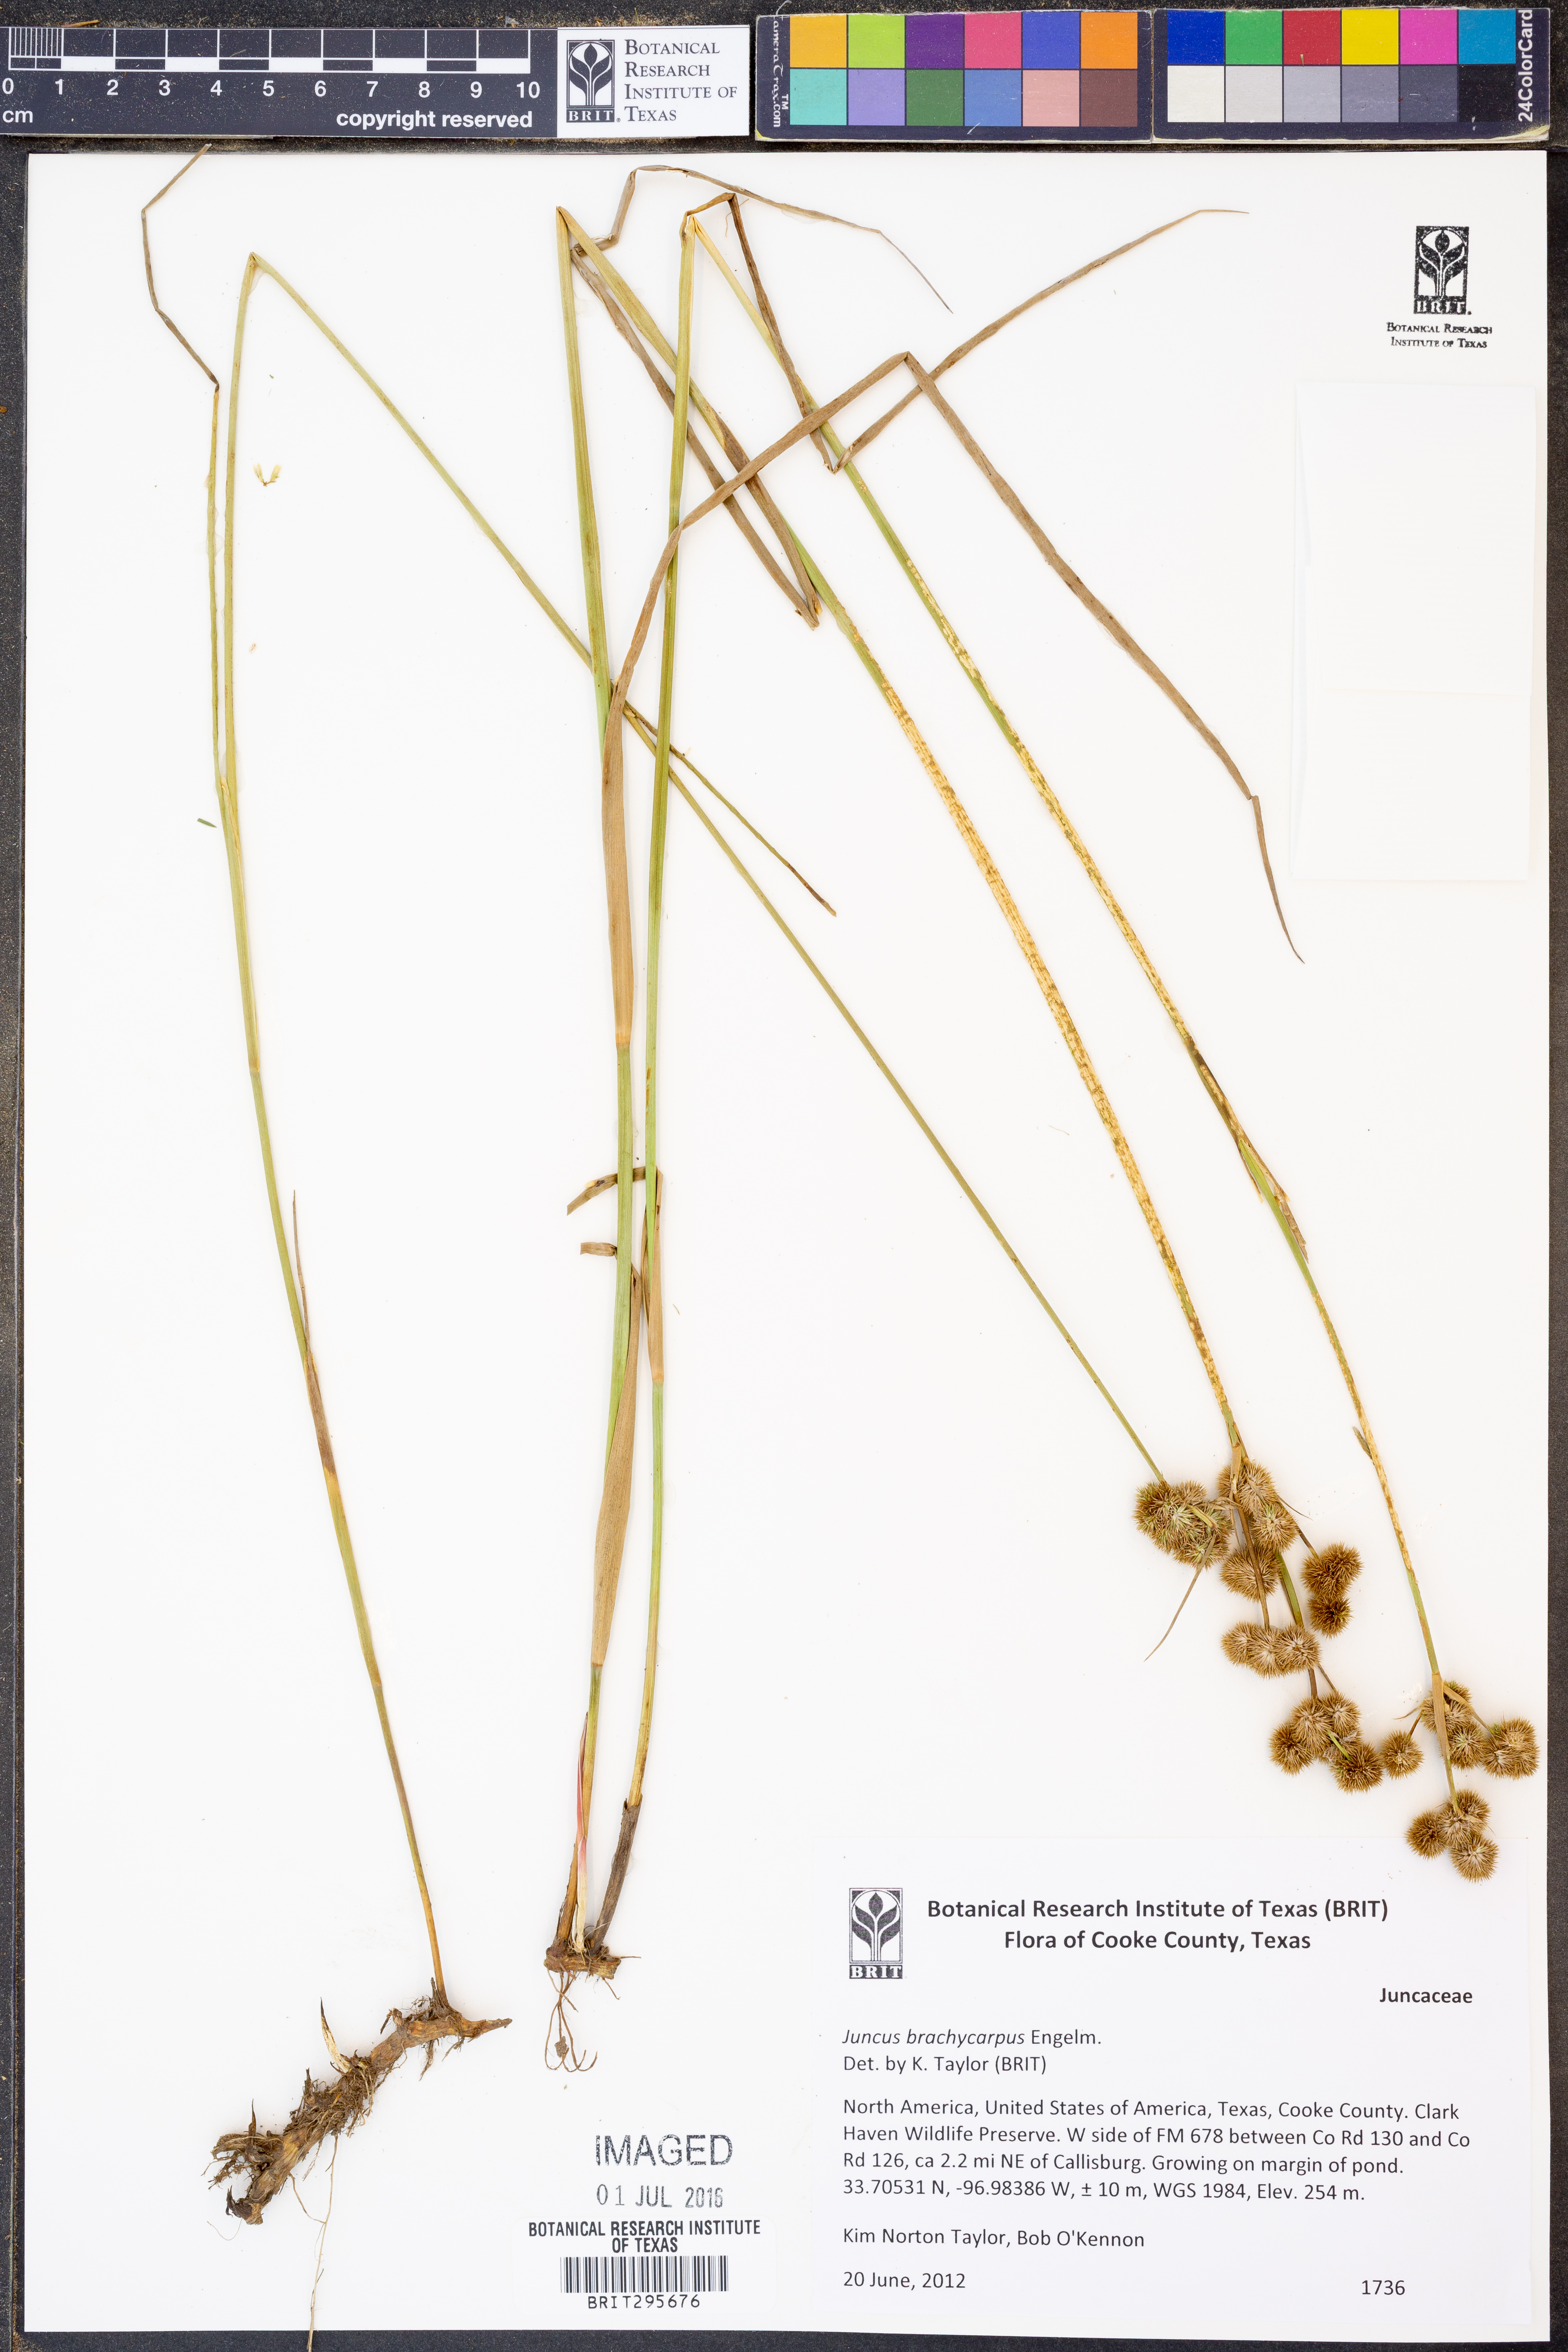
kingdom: Plantae
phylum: Tracheophyta
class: Liliopsida
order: Poales
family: Juncaceae
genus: Juncus
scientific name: Juncus brachycarpus
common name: Shore rush
